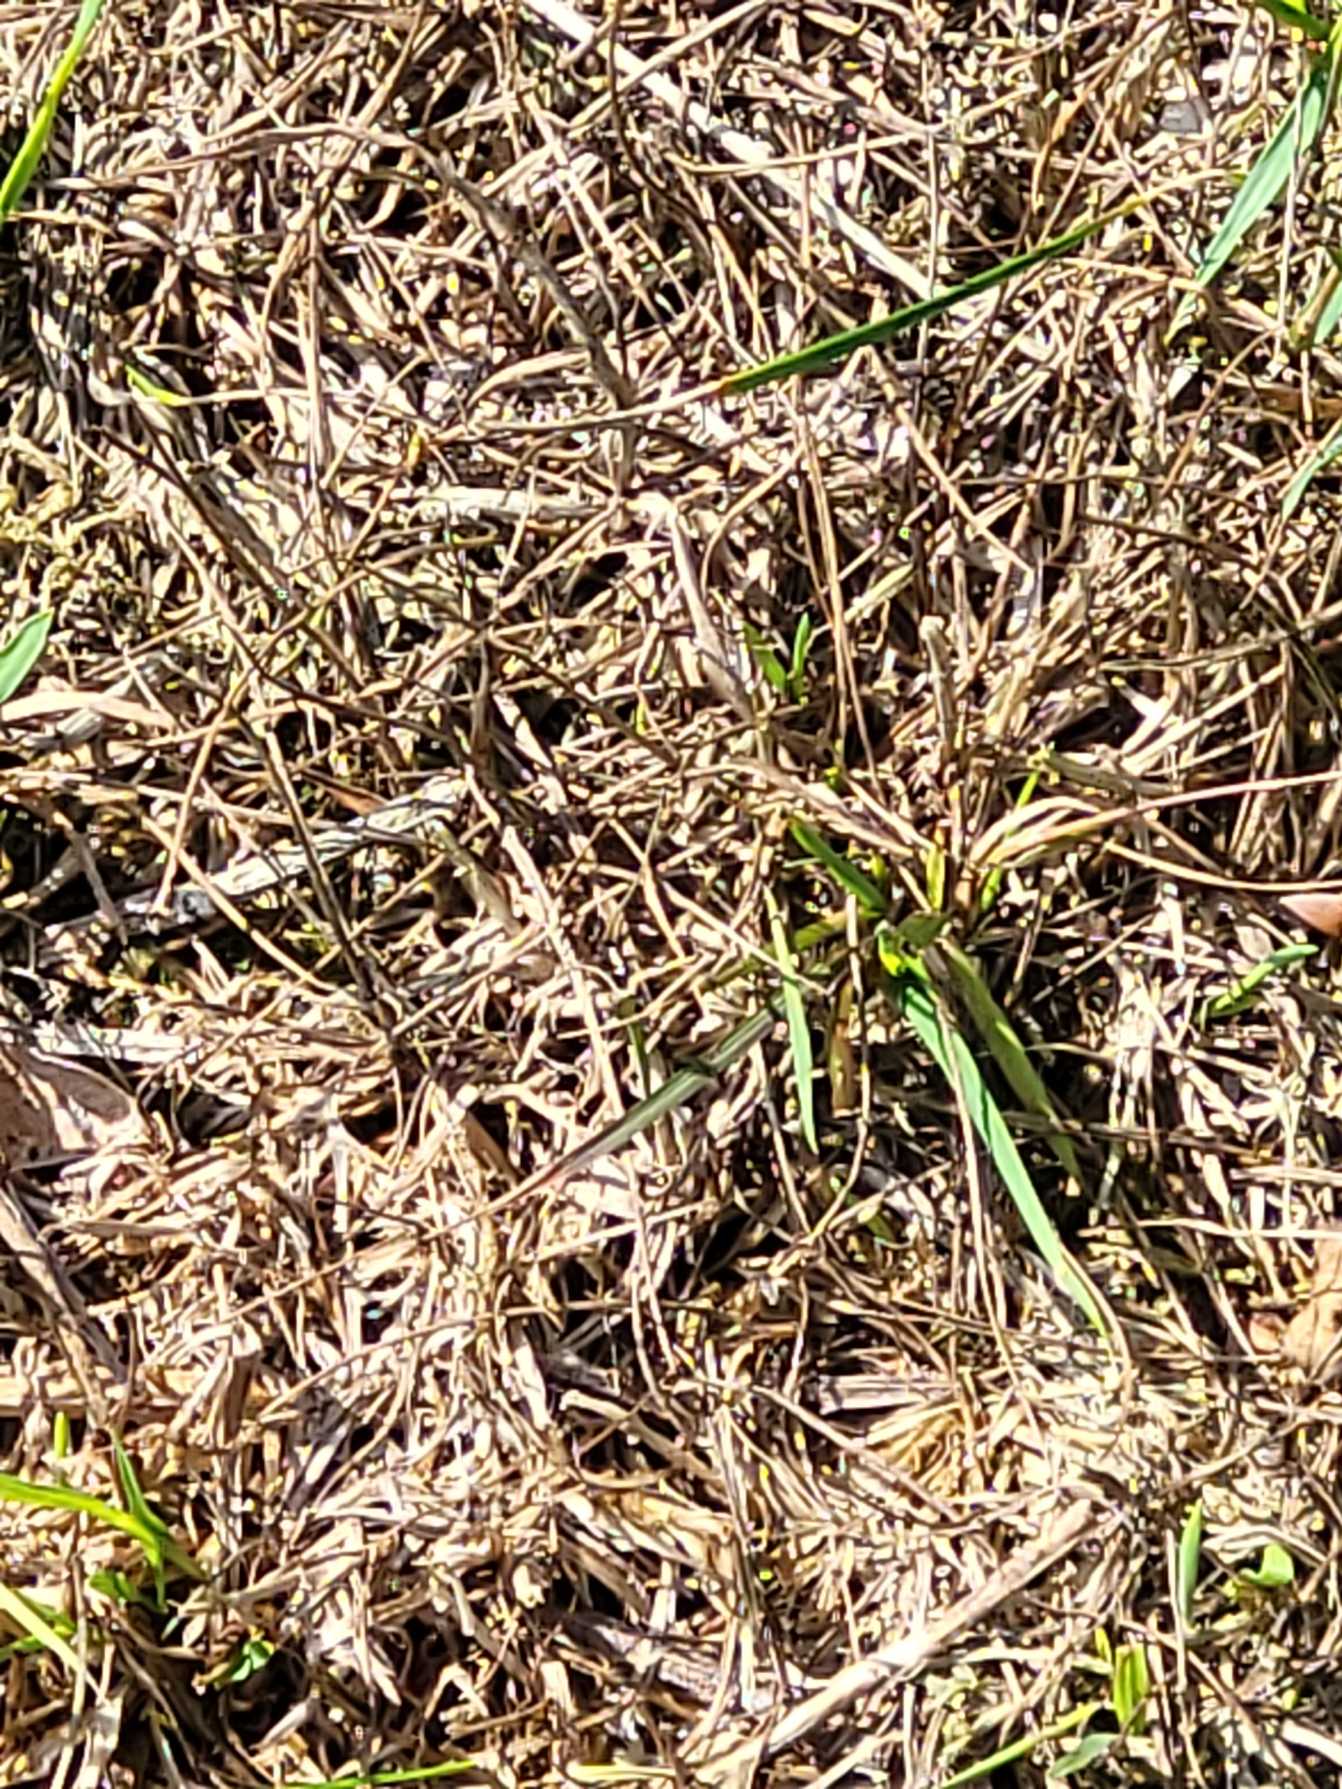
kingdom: Animalia
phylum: Arthropoda
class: Insecta
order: Lepidoptera
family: Lycaenidae
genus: Lycaena
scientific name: Lycaena phlaeas
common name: Lille ildfugl
